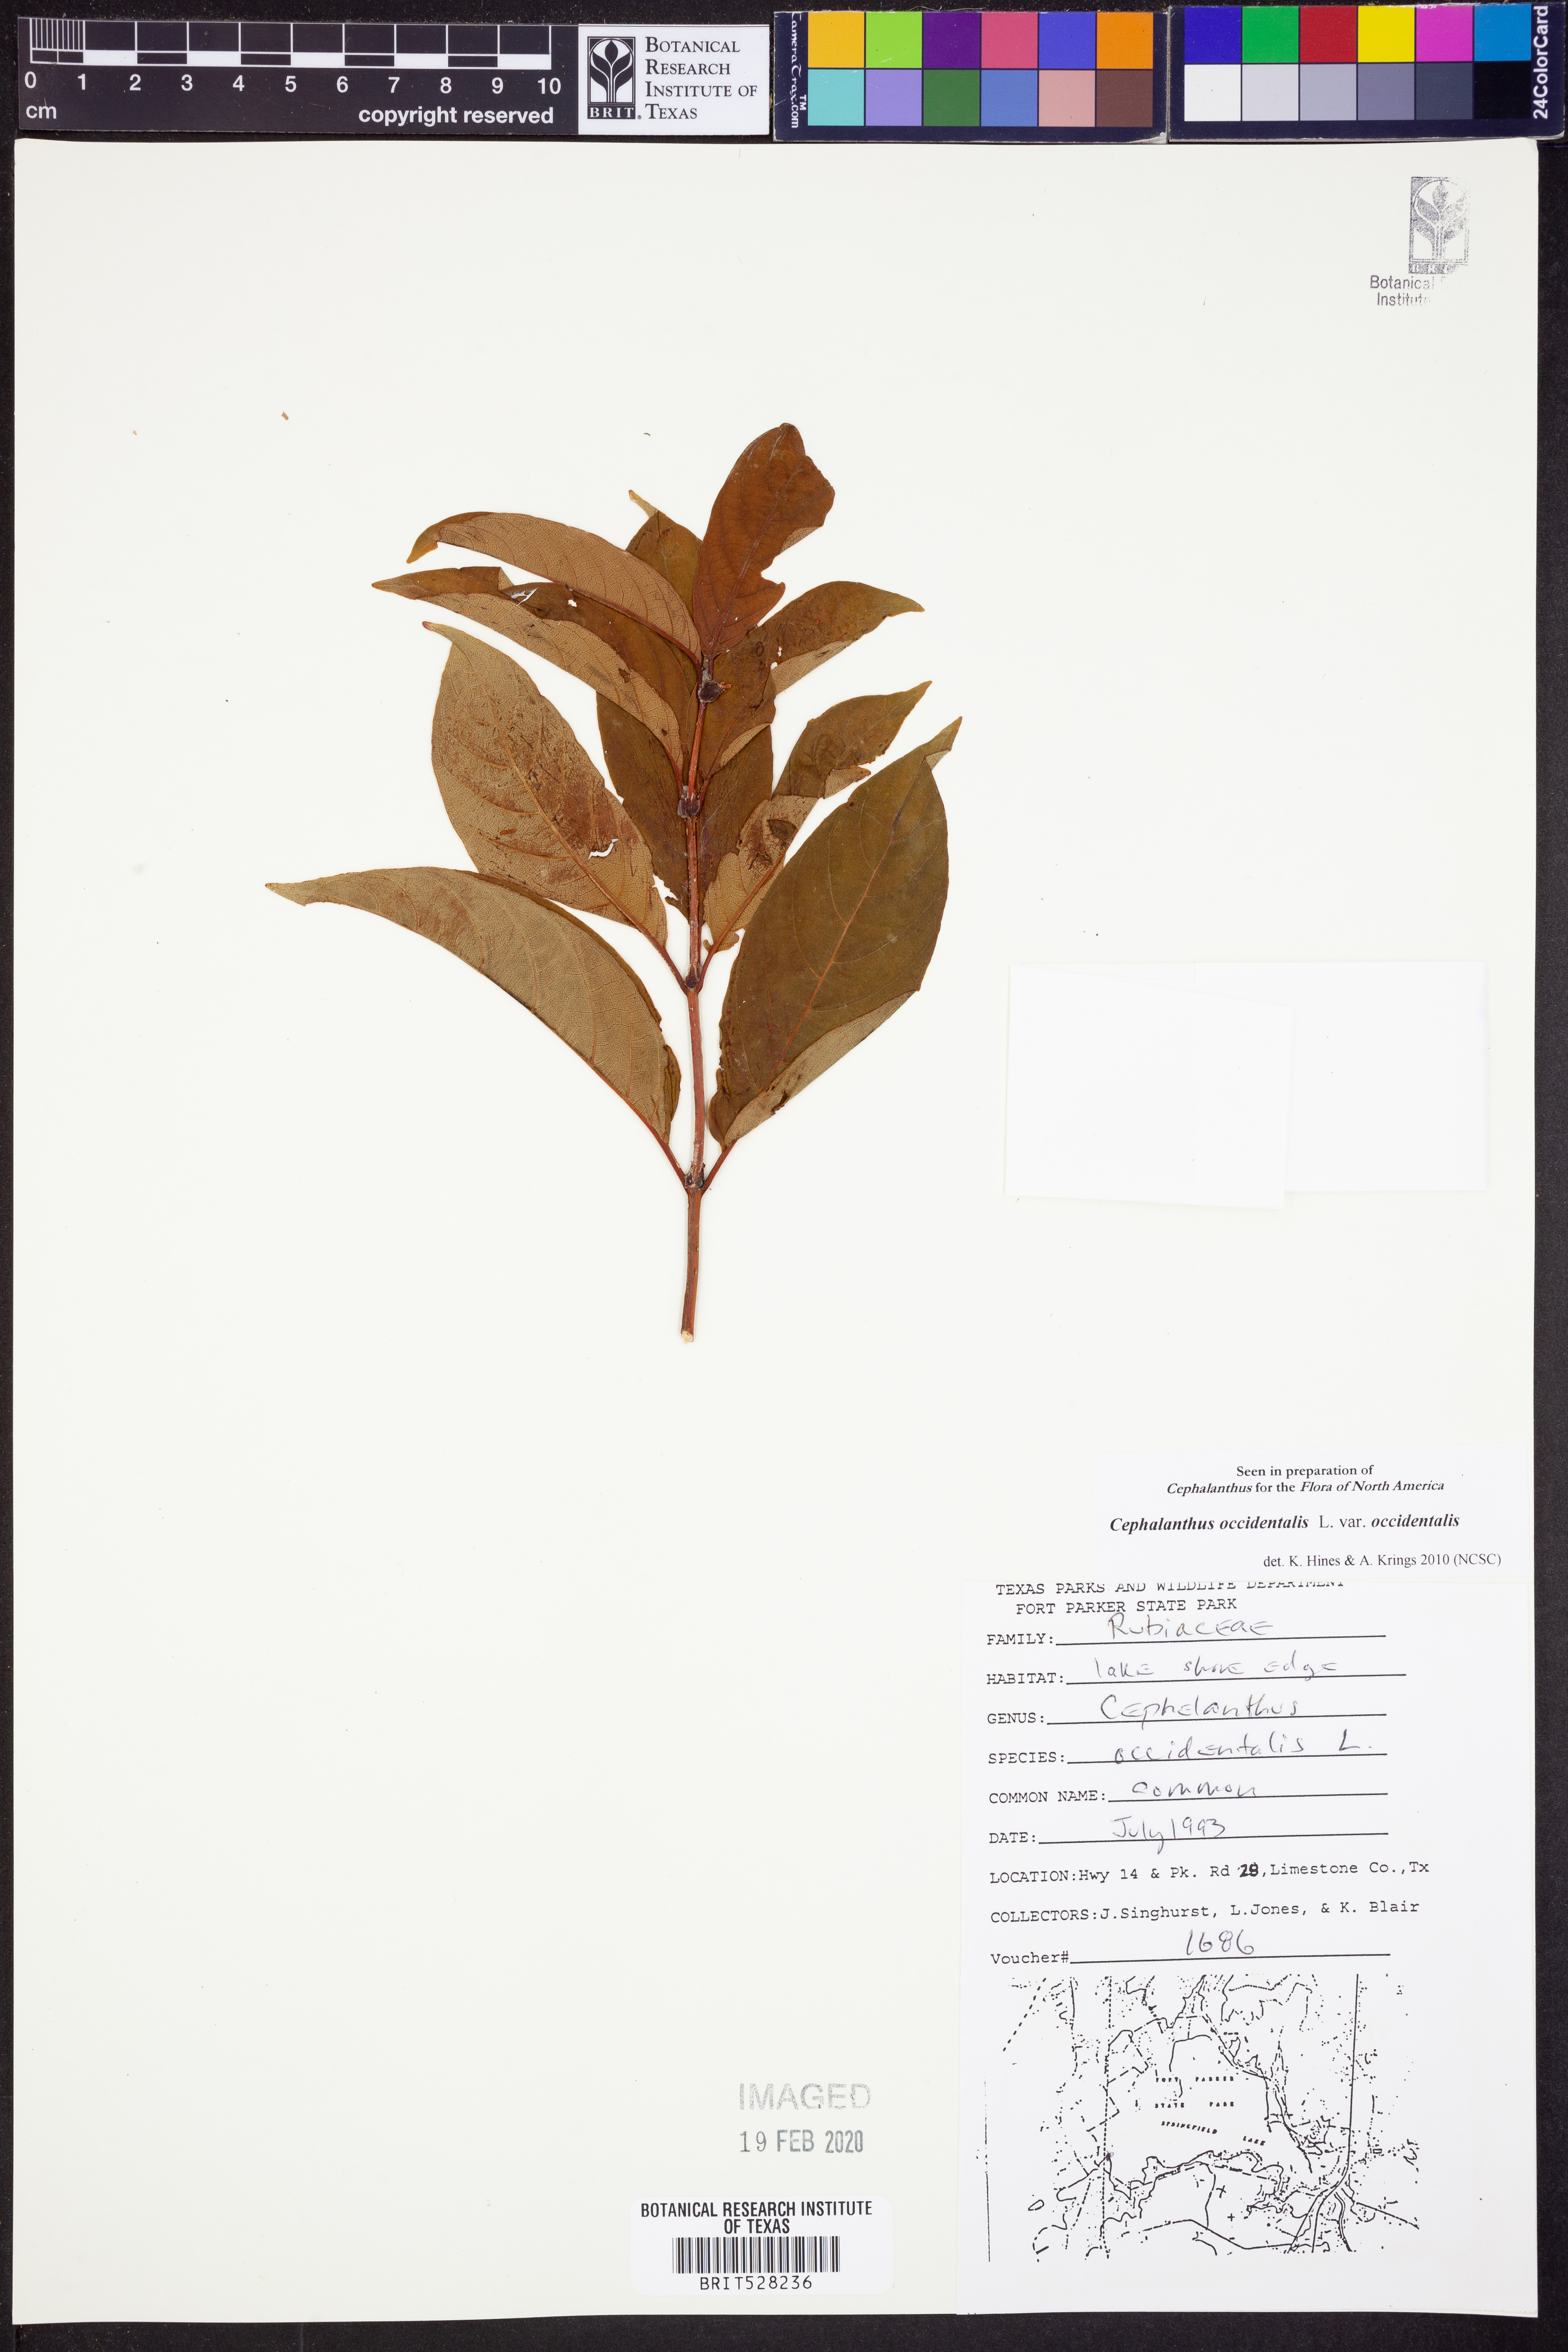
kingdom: Plantae
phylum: Tracheophyta
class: Magnoliopsida
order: Gentianales
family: Rubiaceae
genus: Cephalanthus
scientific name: Cephalanthus occidentalis
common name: Button-willow
